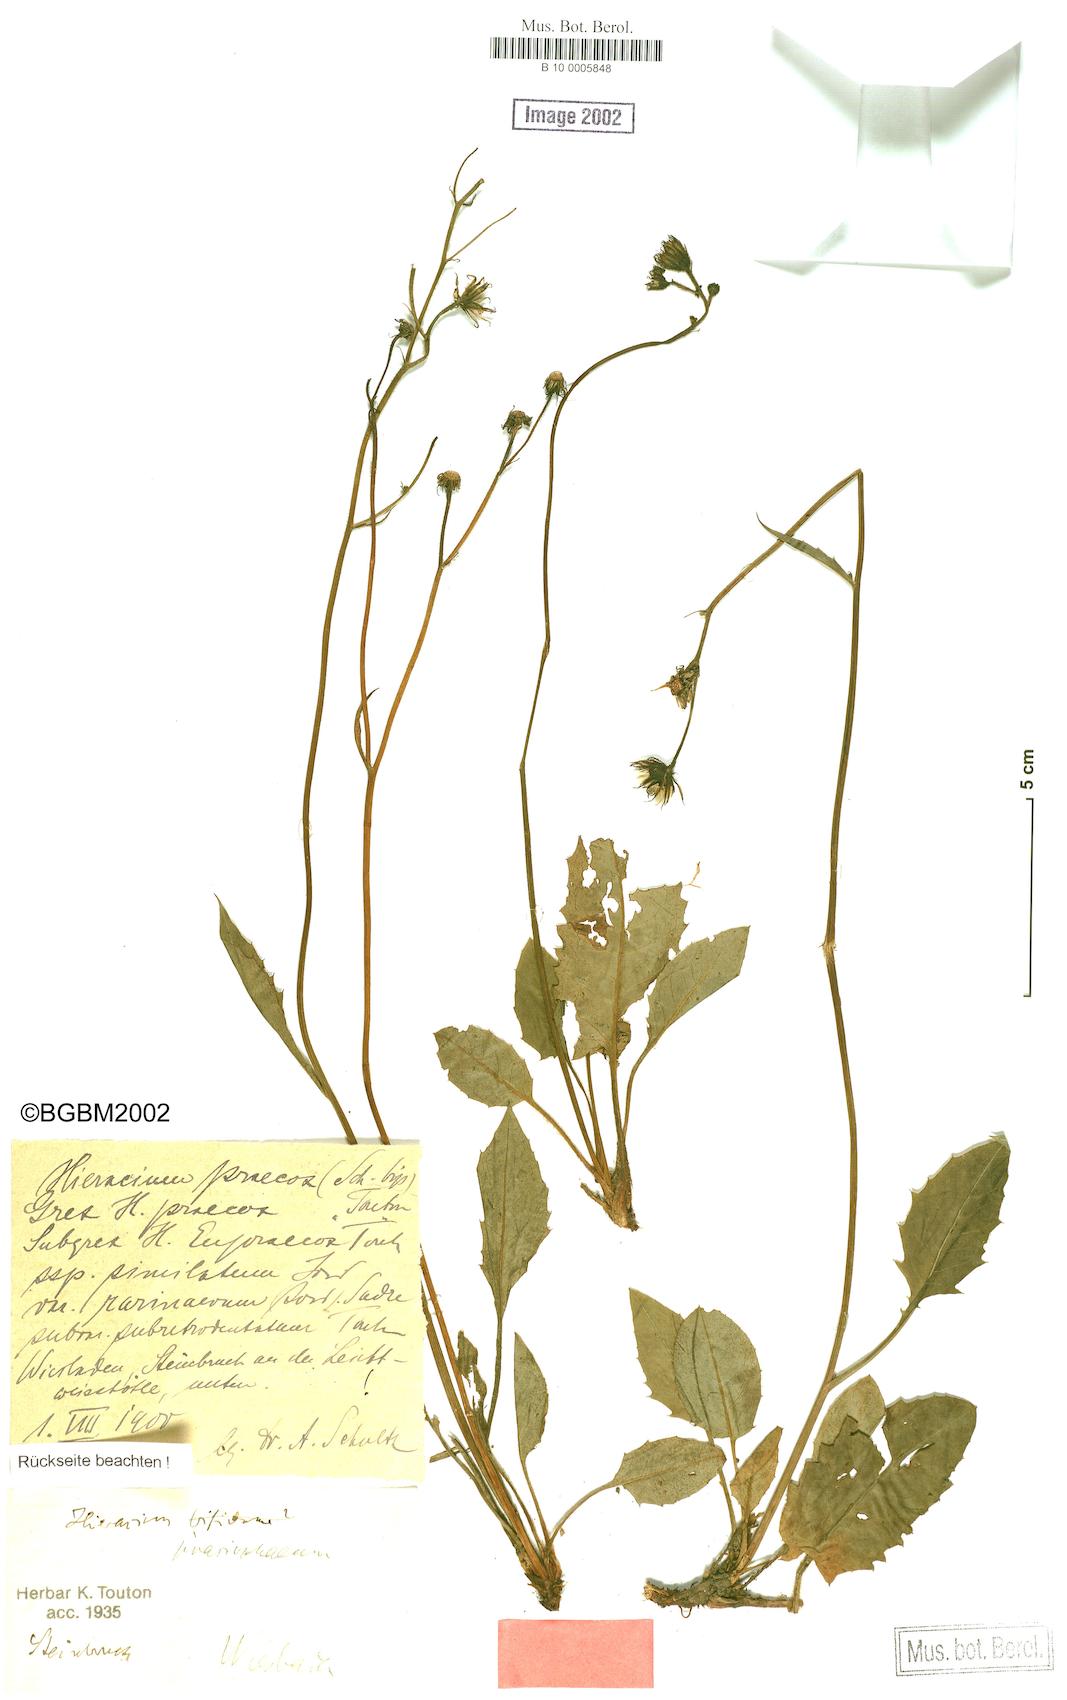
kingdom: Plantae
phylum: Tracheophyta
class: Magnoliopsida
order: Asterales
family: Asteraceae
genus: Hieracium
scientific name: Hieracium praecox
